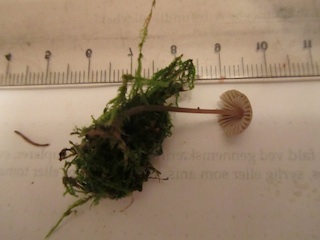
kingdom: Fungi
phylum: Basidiomycota
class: Agaricomycetes
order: Agaricales
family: Mycenaceae
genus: Mycena
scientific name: Mycena arcangeliana
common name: oliven-huesvamp
